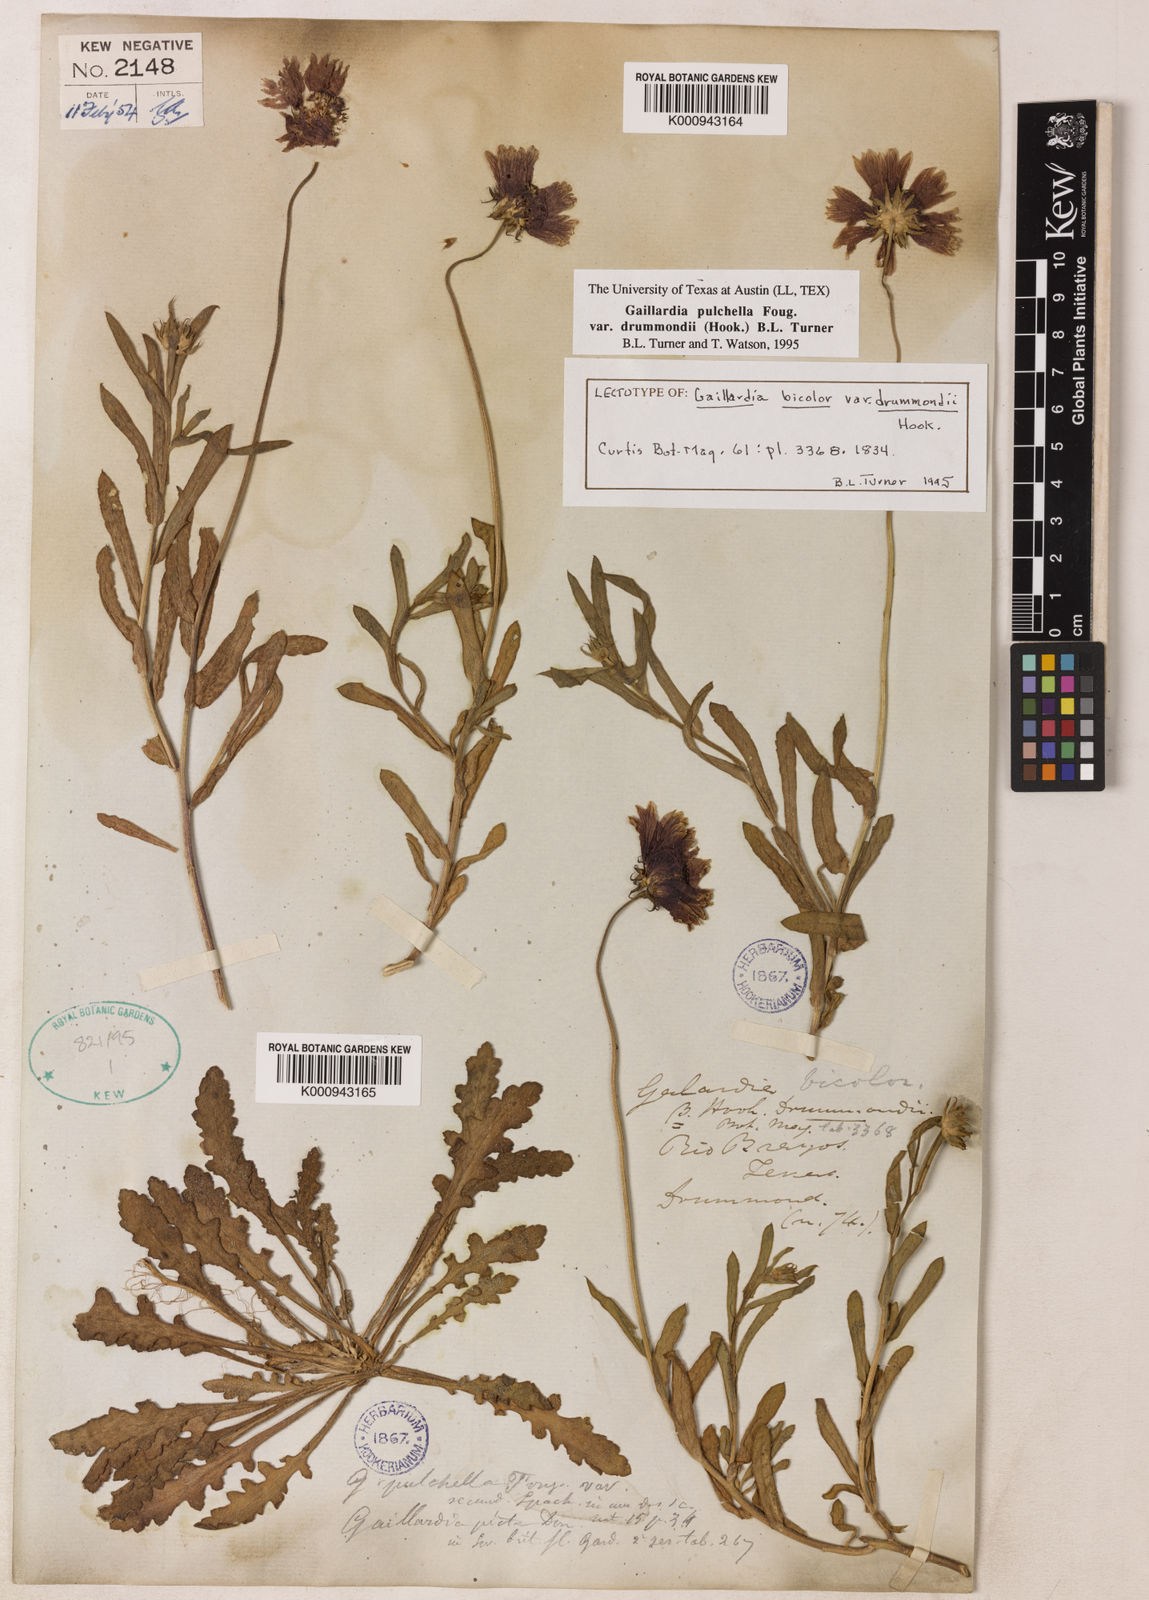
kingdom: Plantae
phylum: Tracheophyta
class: Magnoliopsida
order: Asterales
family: Asteraceae
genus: Gaillardia
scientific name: Gaillardia pulchella
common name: Firewheel
